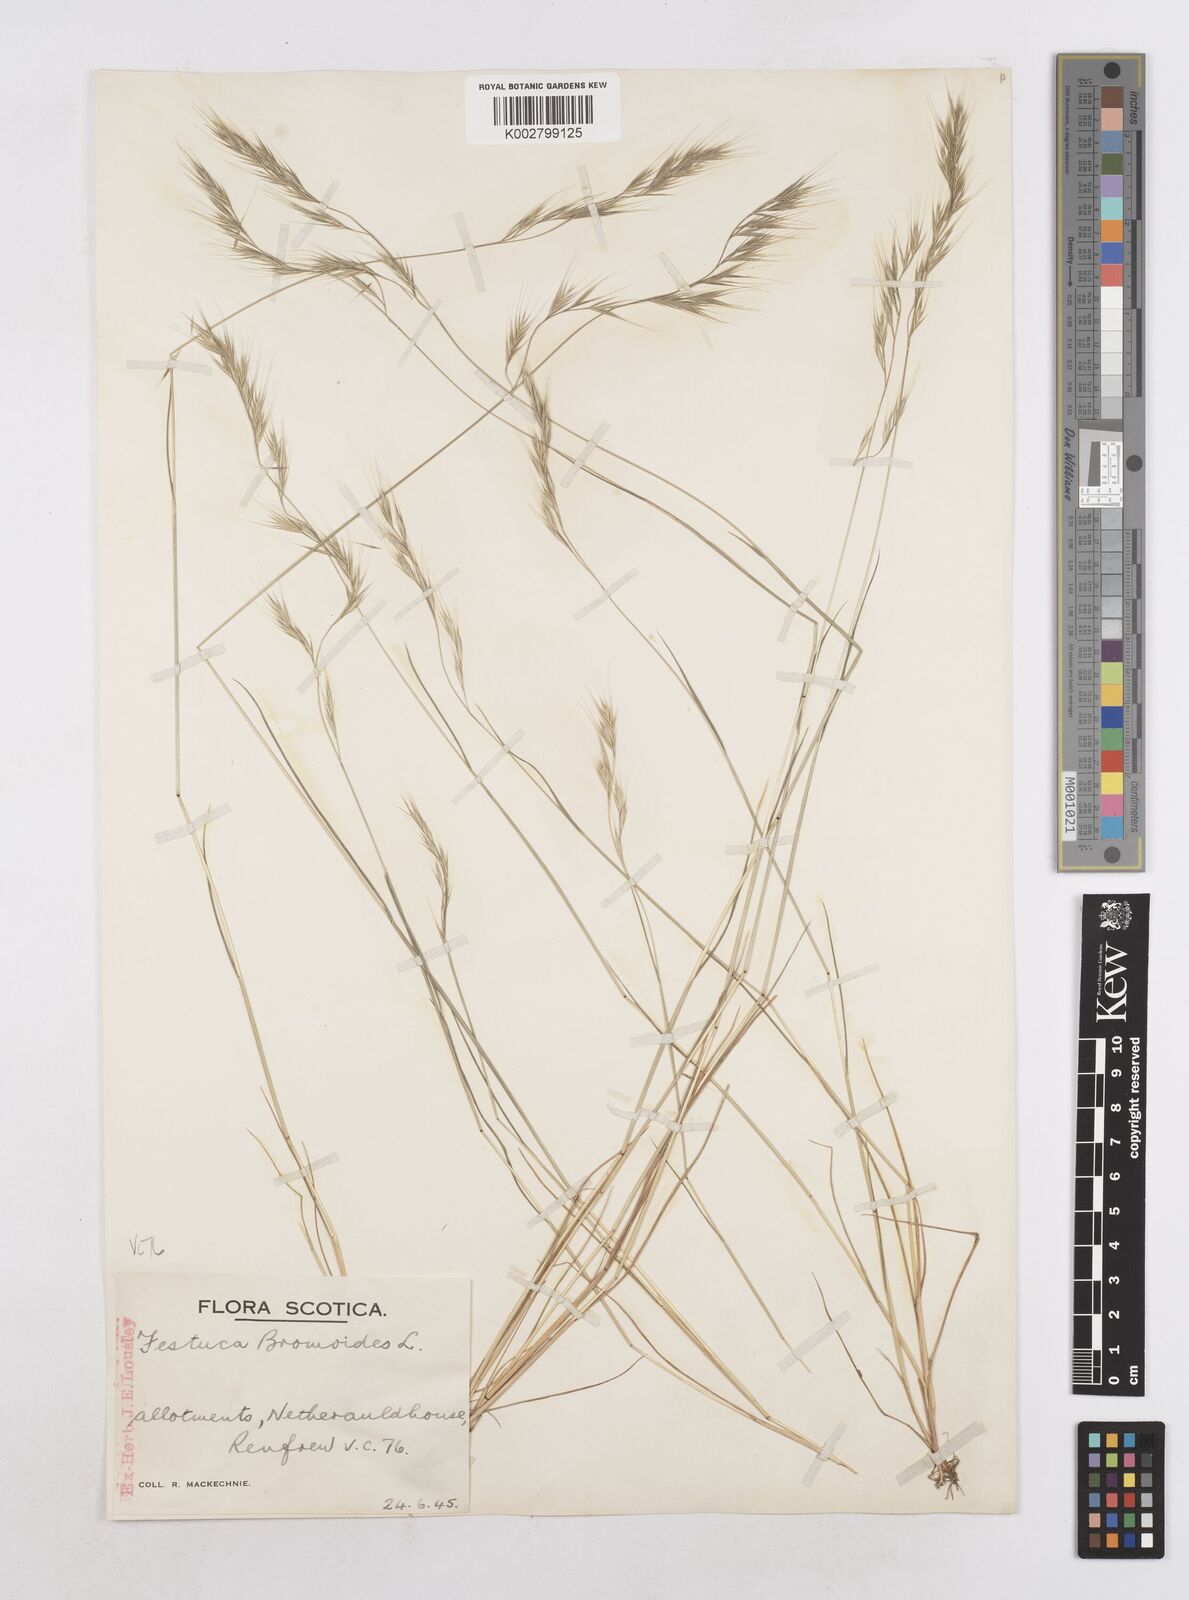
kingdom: Plantae
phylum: Tracheophyta
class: Liliopsida
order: Poales
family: Poaceae
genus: Festuca
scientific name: Festuca bromoides
